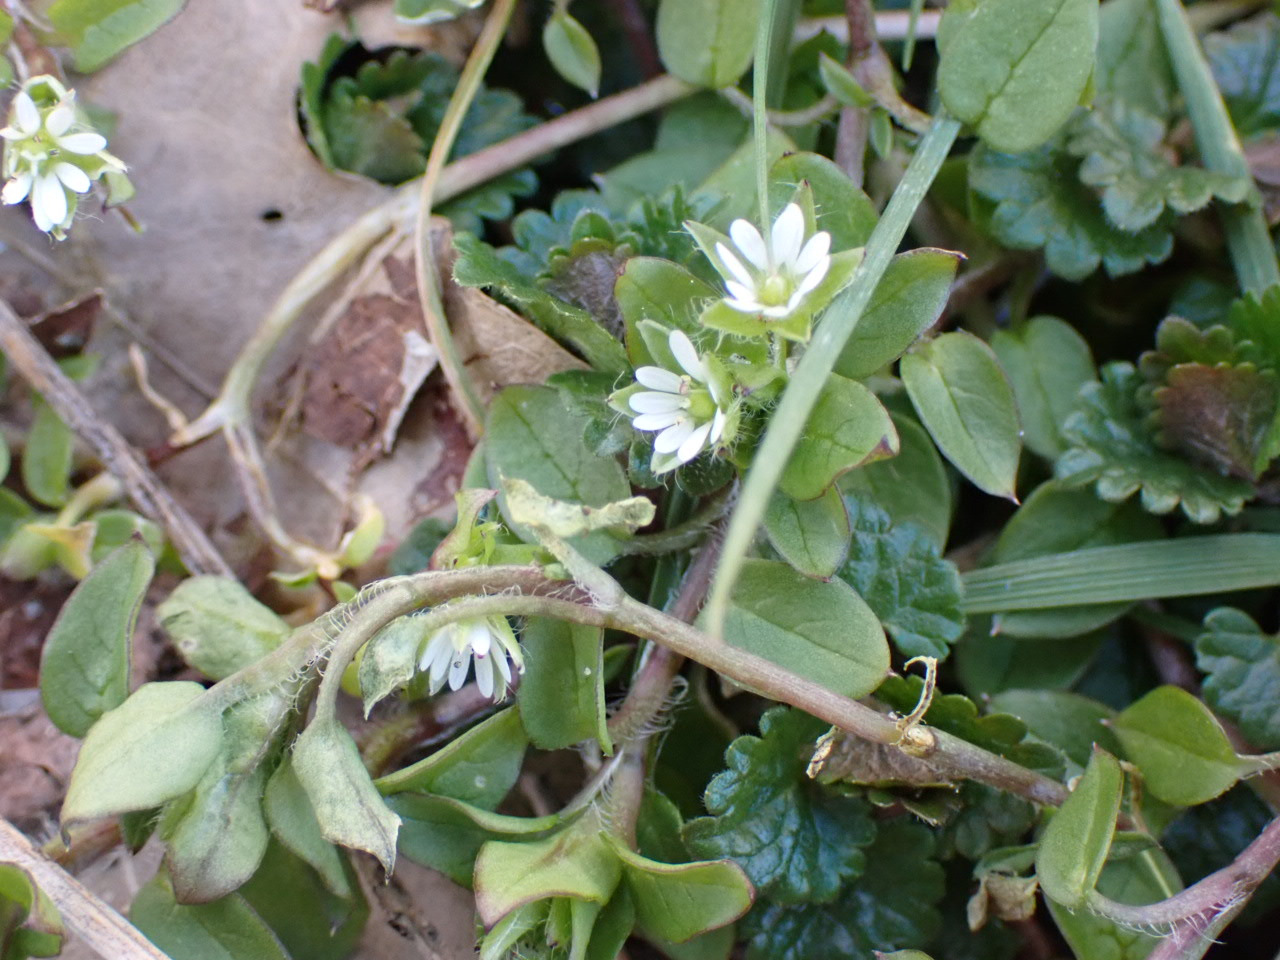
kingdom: Plantae
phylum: Tracheophyta
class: Magnoliopsida
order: Caryophyllales
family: Caryophyllaceae
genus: Stellaria
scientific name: Stellaria media
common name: Almindelig fuglegræs
